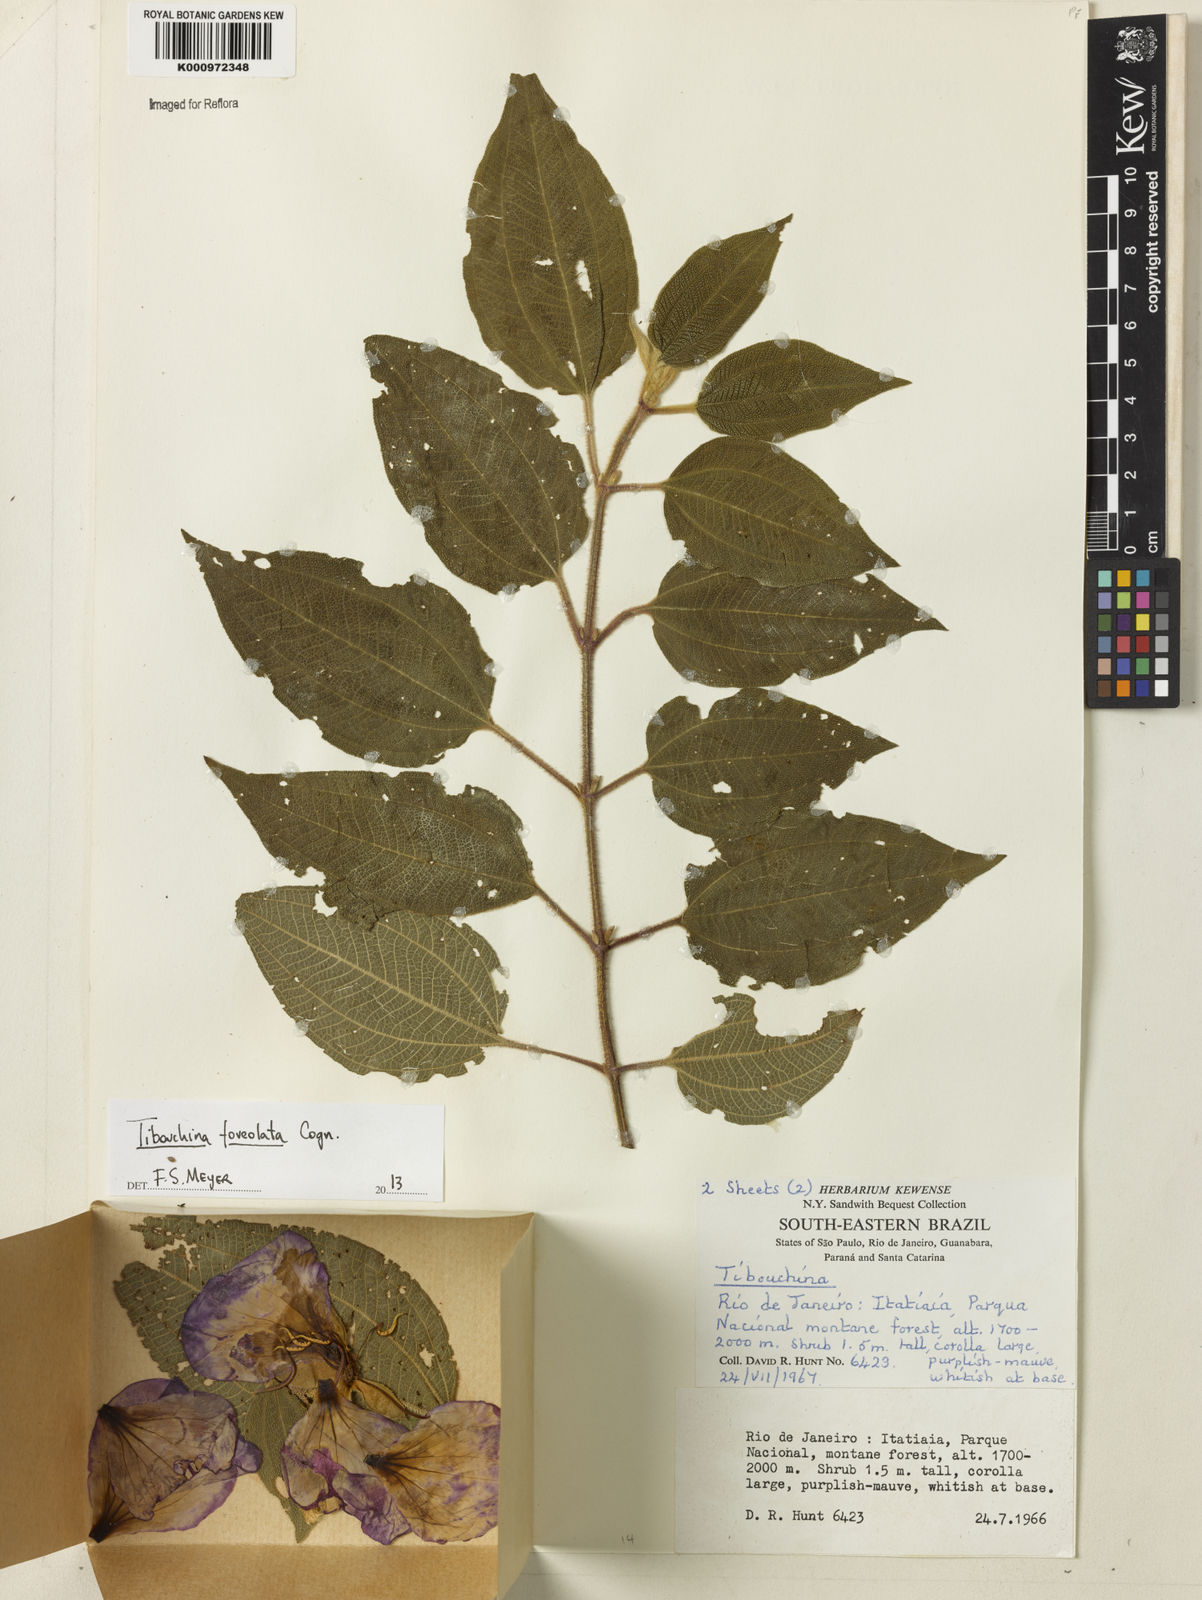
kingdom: Plantae
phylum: Tracheophyta
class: Magnoliopsida
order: Myrtales
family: Melastomataceae
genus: Pleroma
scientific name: Pleroma foveolatum
